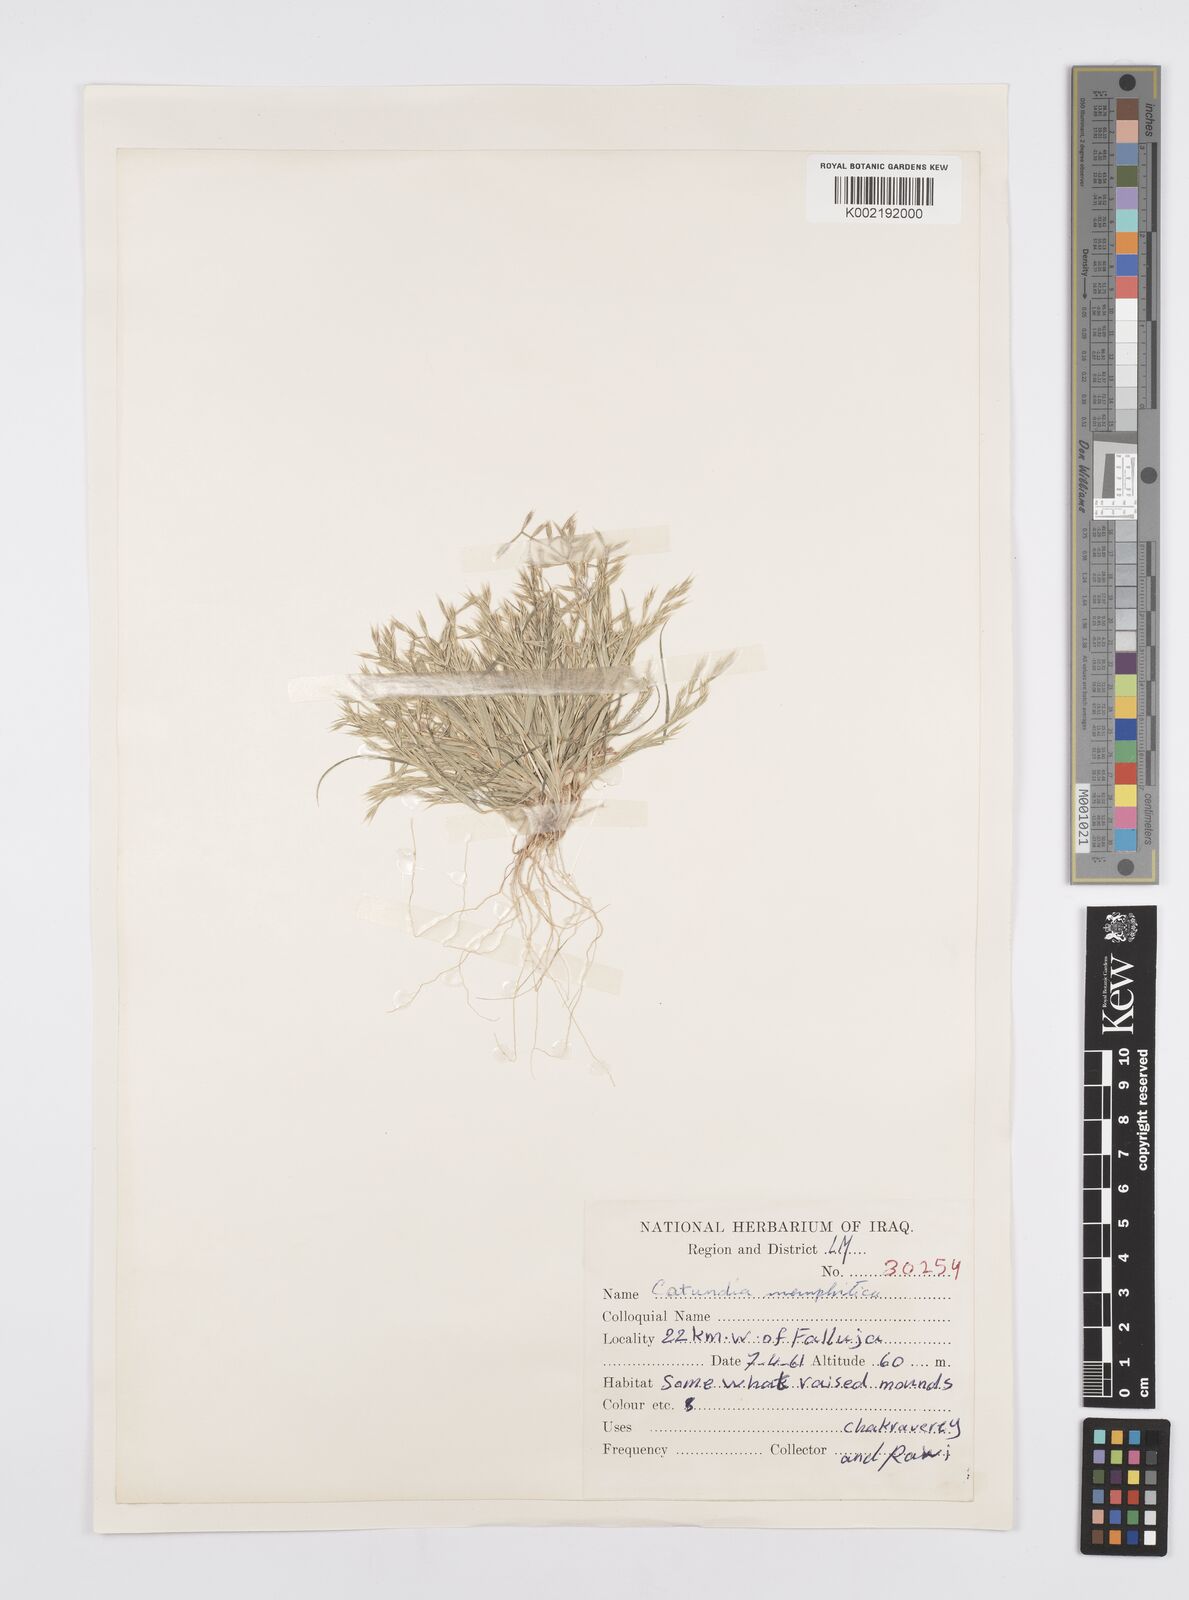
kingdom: Plantae
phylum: Tracheophyta
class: Liliopsida
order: Poales
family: Poaceae
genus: Cutandia
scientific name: Cutandia memphitica
